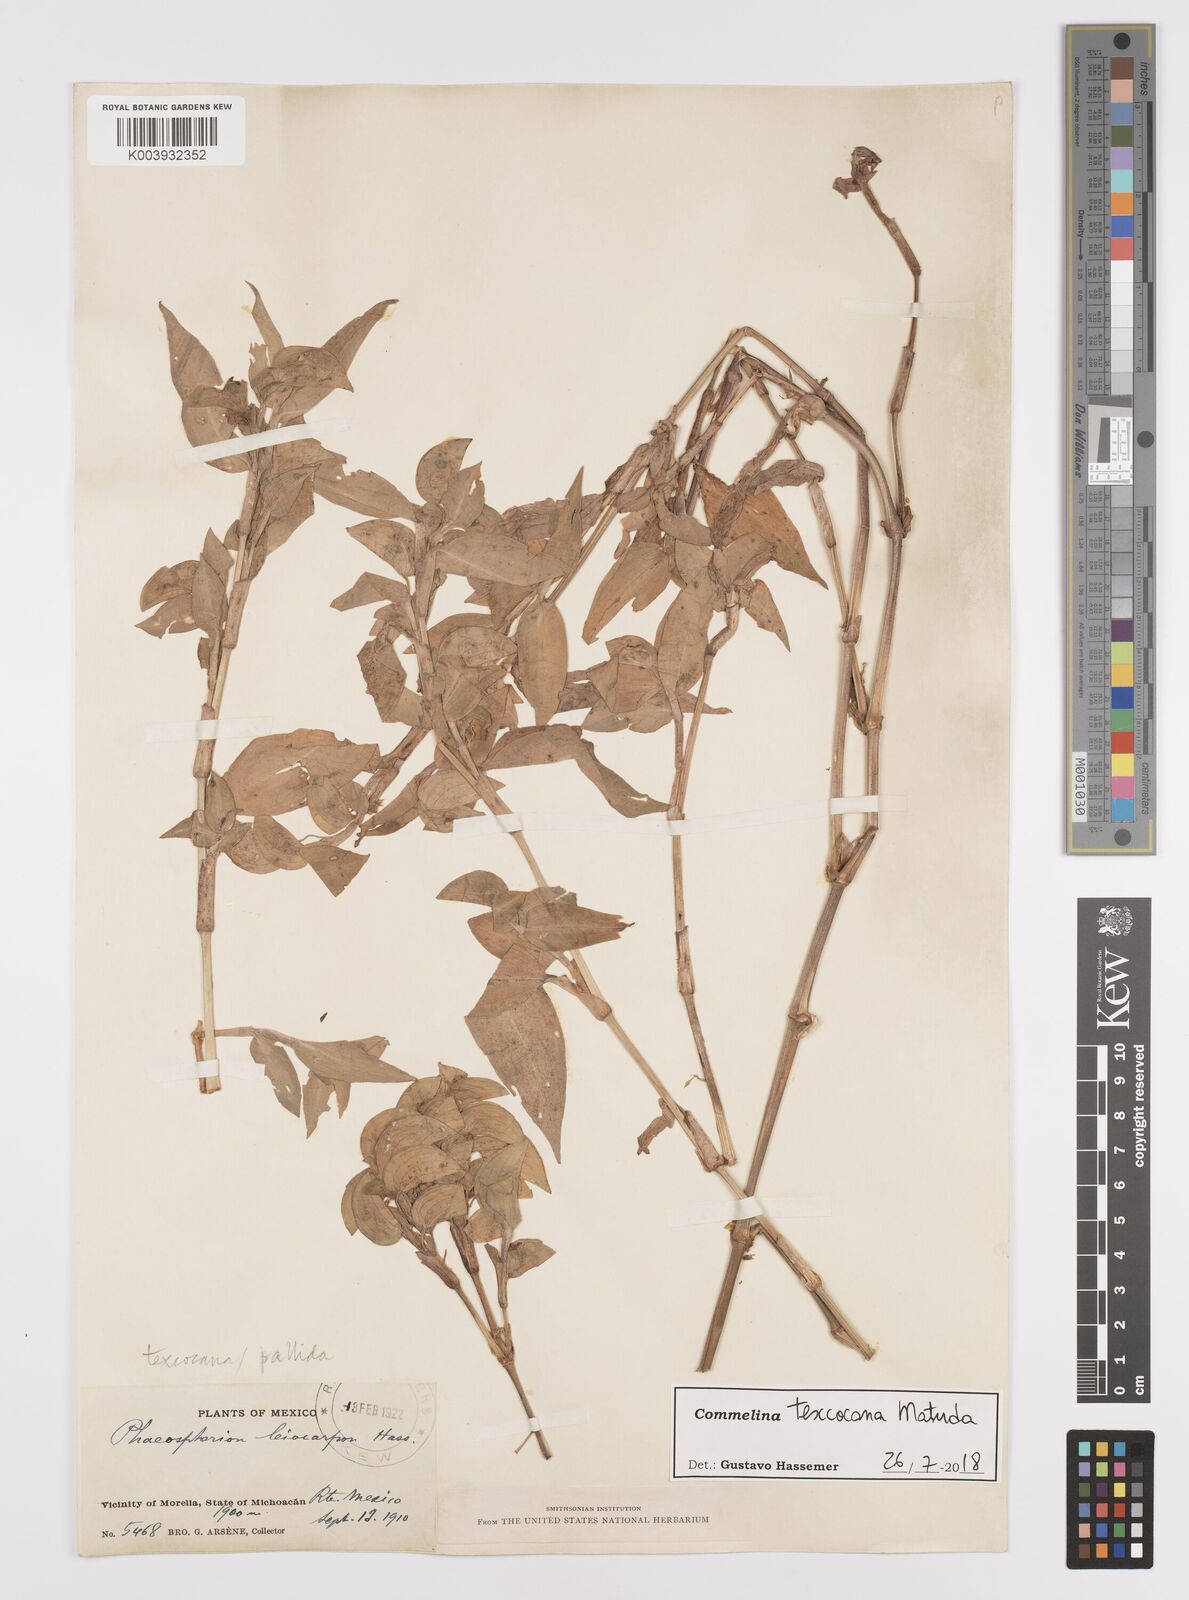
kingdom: Plantae
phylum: Tracheophyta
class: Liliopsida
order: Commelinales
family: Commelinaceae
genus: Commelina
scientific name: Commelina texcocana
